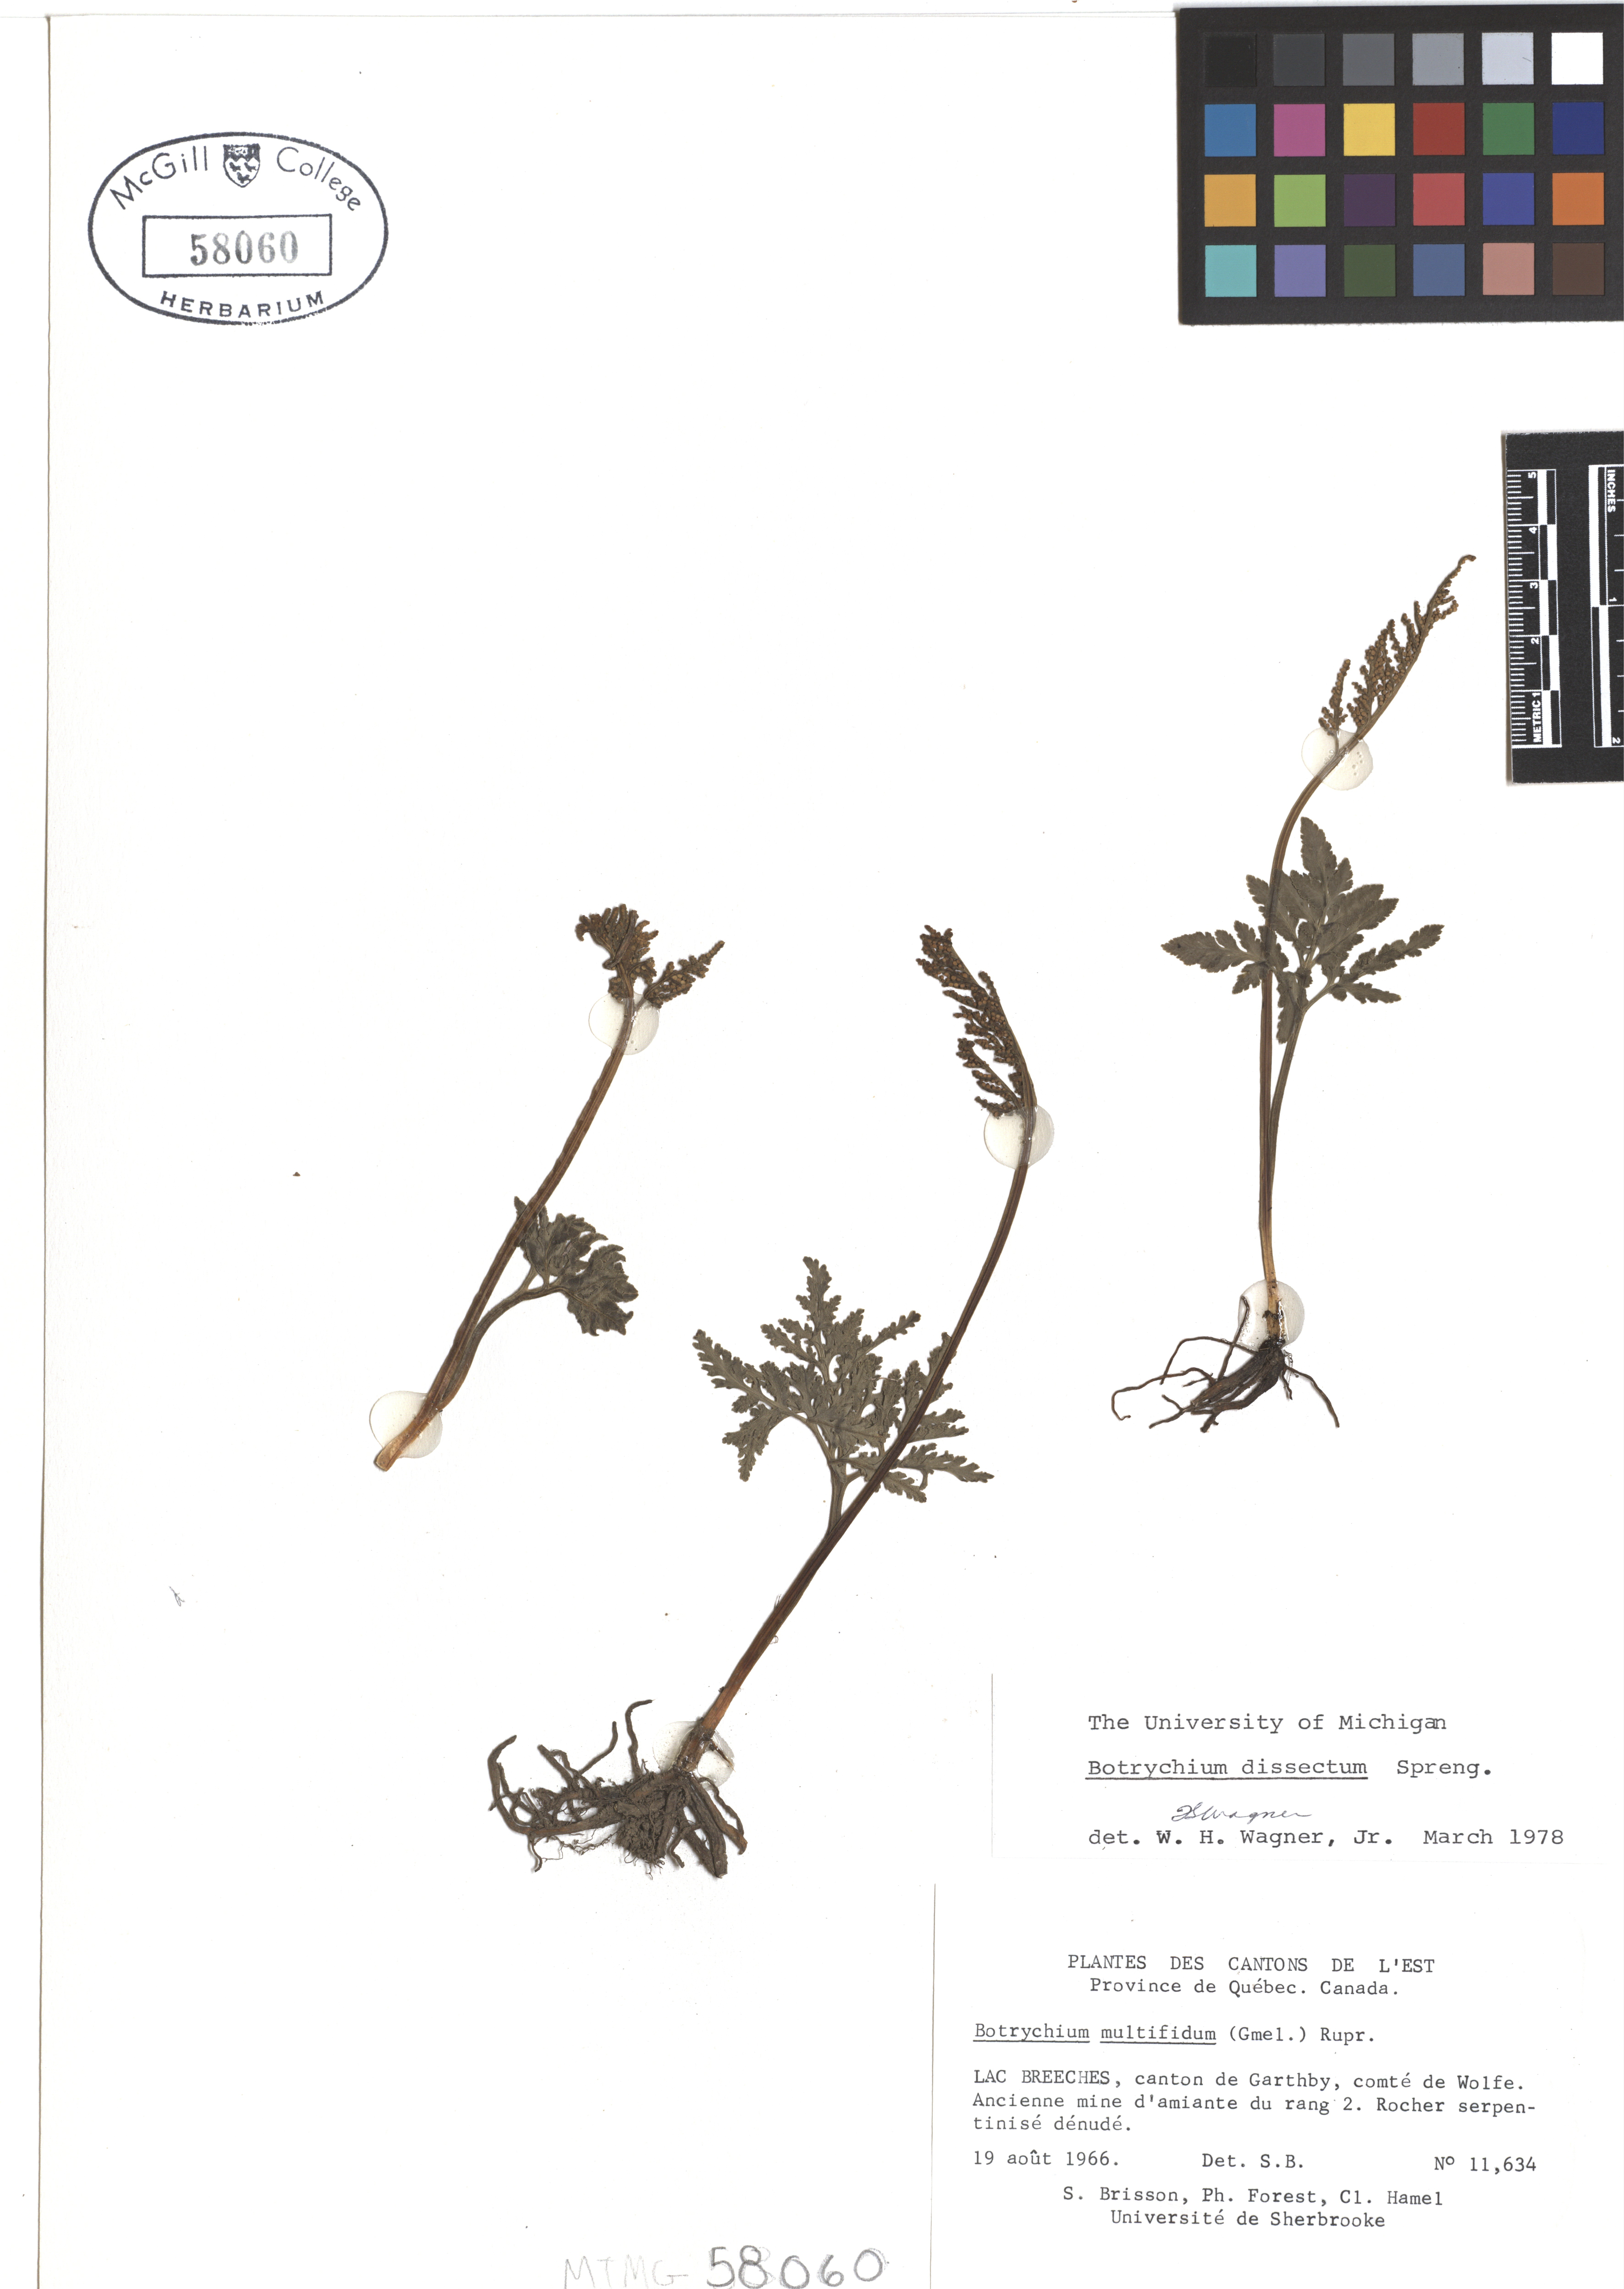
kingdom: Plantae
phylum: Tracheophyta
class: Polypodiopsida
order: Ophioglossales
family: Ophioglossaceae
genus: Sceptridium
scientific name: Sceptridium dissectum
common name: Cut-leaved grapefern
